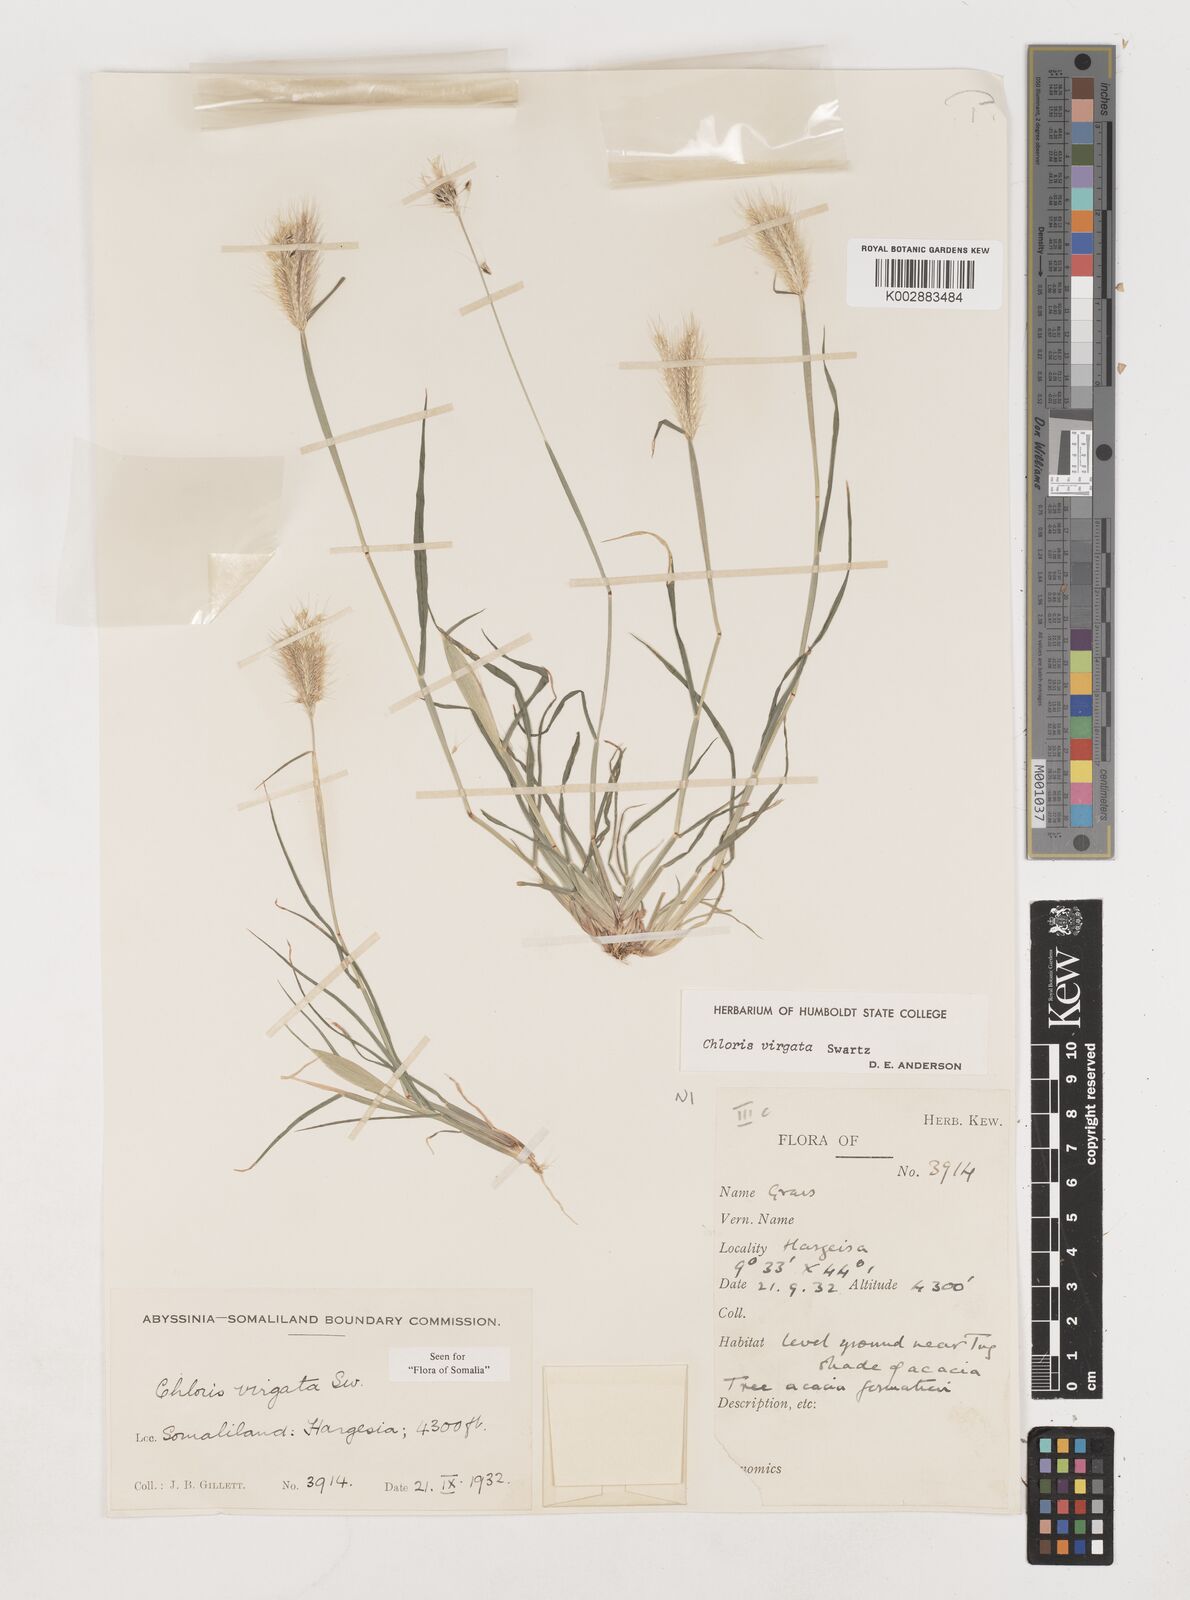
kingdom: Plantae
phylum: Tracheophyta
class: Liliopsida
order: Poales
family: Poaceae
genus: Chloris
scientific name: Chloris virgata
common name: Feathery rhodes-grass
